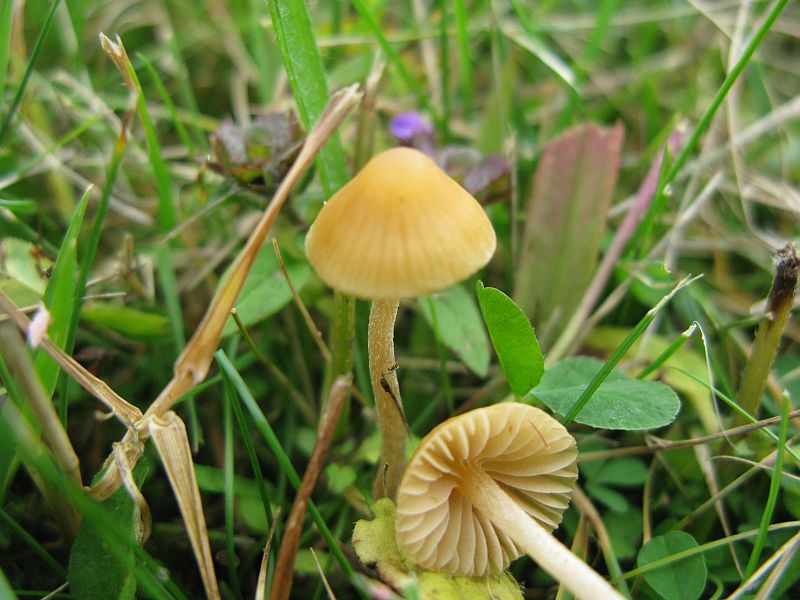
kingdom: Fungi
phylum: Basidiomycota
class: Agaricomycetes
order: Agaricales
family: Hymenogastraceae
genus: Galerina
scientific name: Galerina clavata
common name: kær-hjelmhat
